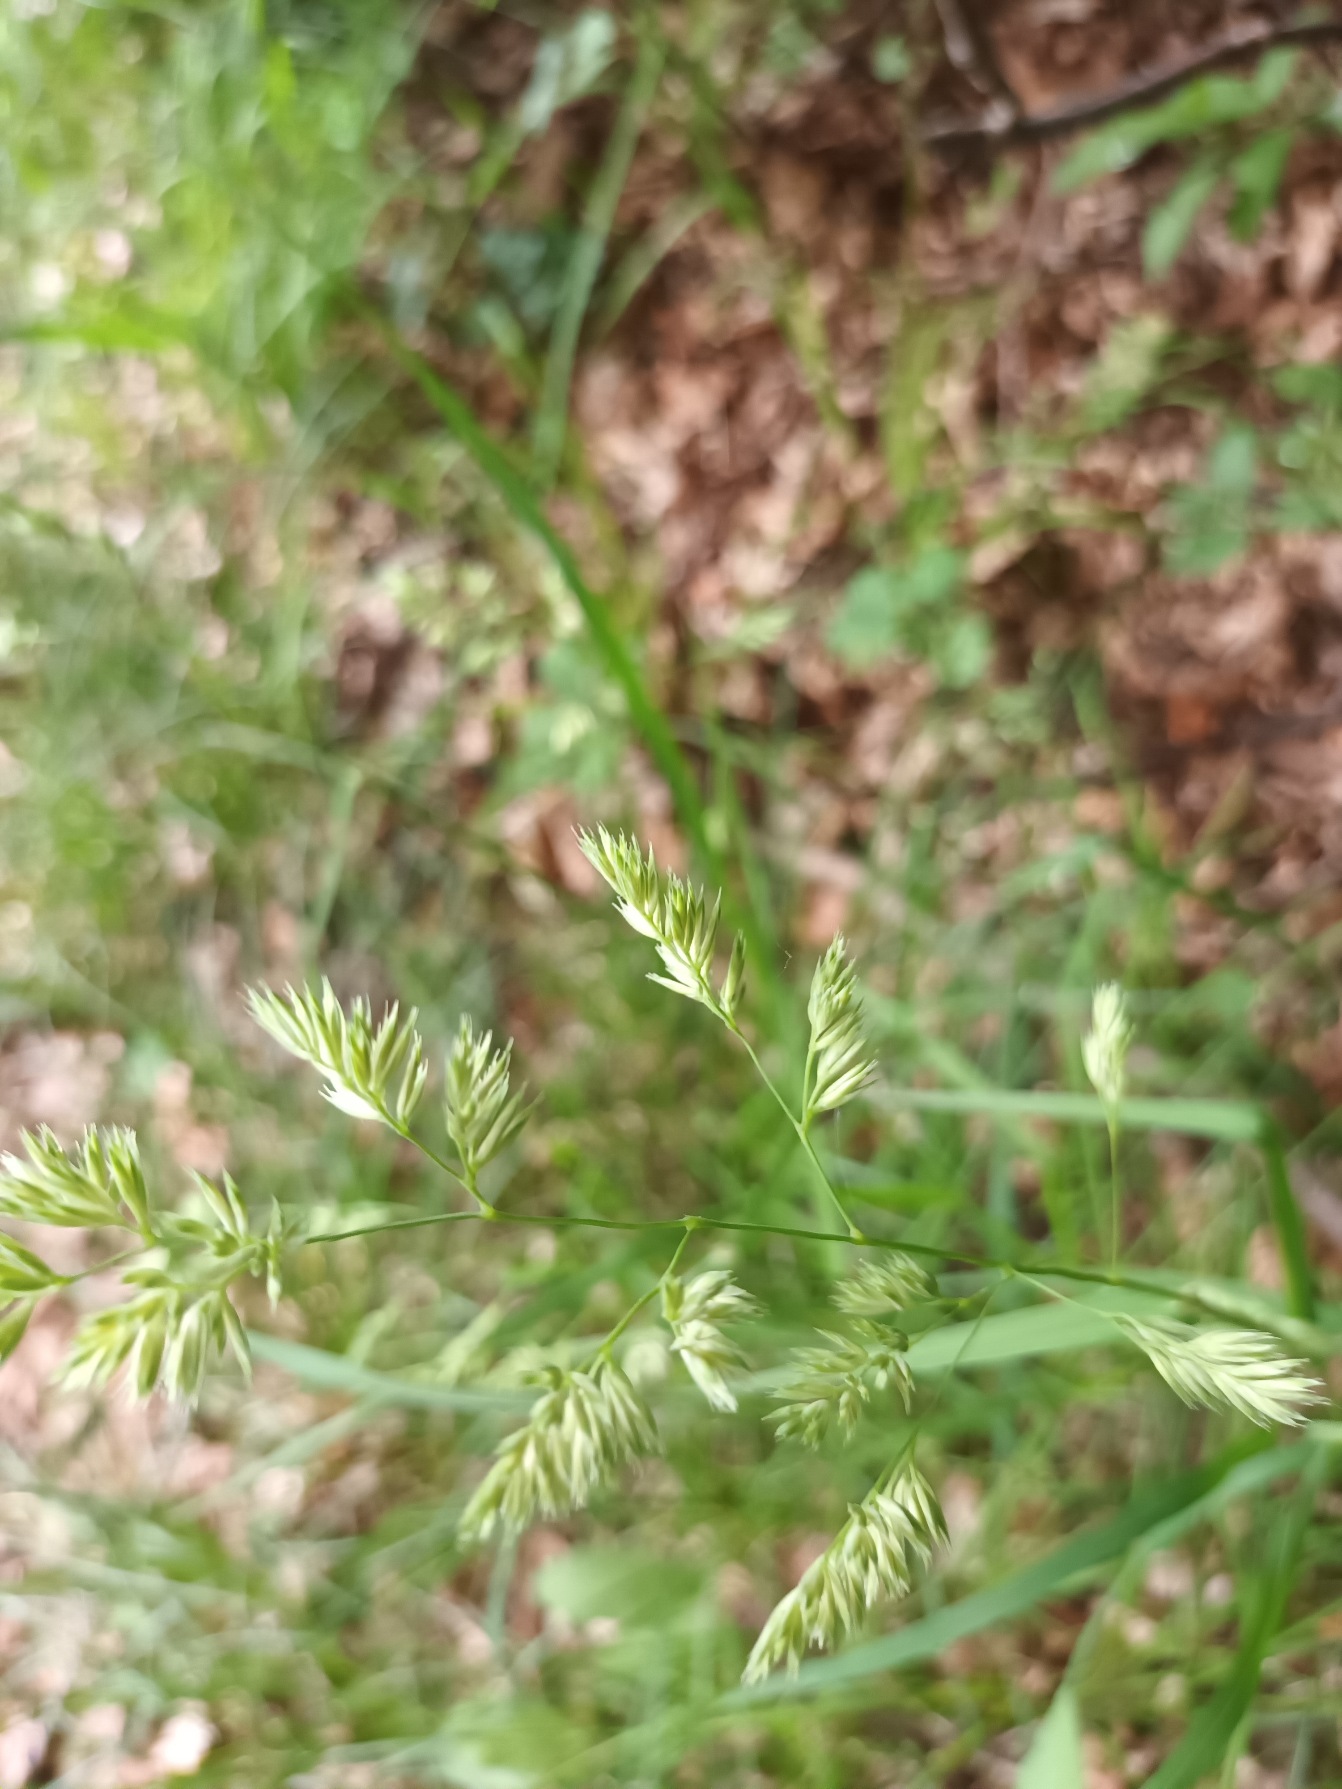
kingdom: Plantae
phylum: Tracheophyta
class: Liliopsida
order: Poales
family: Poaceae
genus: Dactylis
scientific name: Dactylis glomerata
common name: Skov-hundegræs
